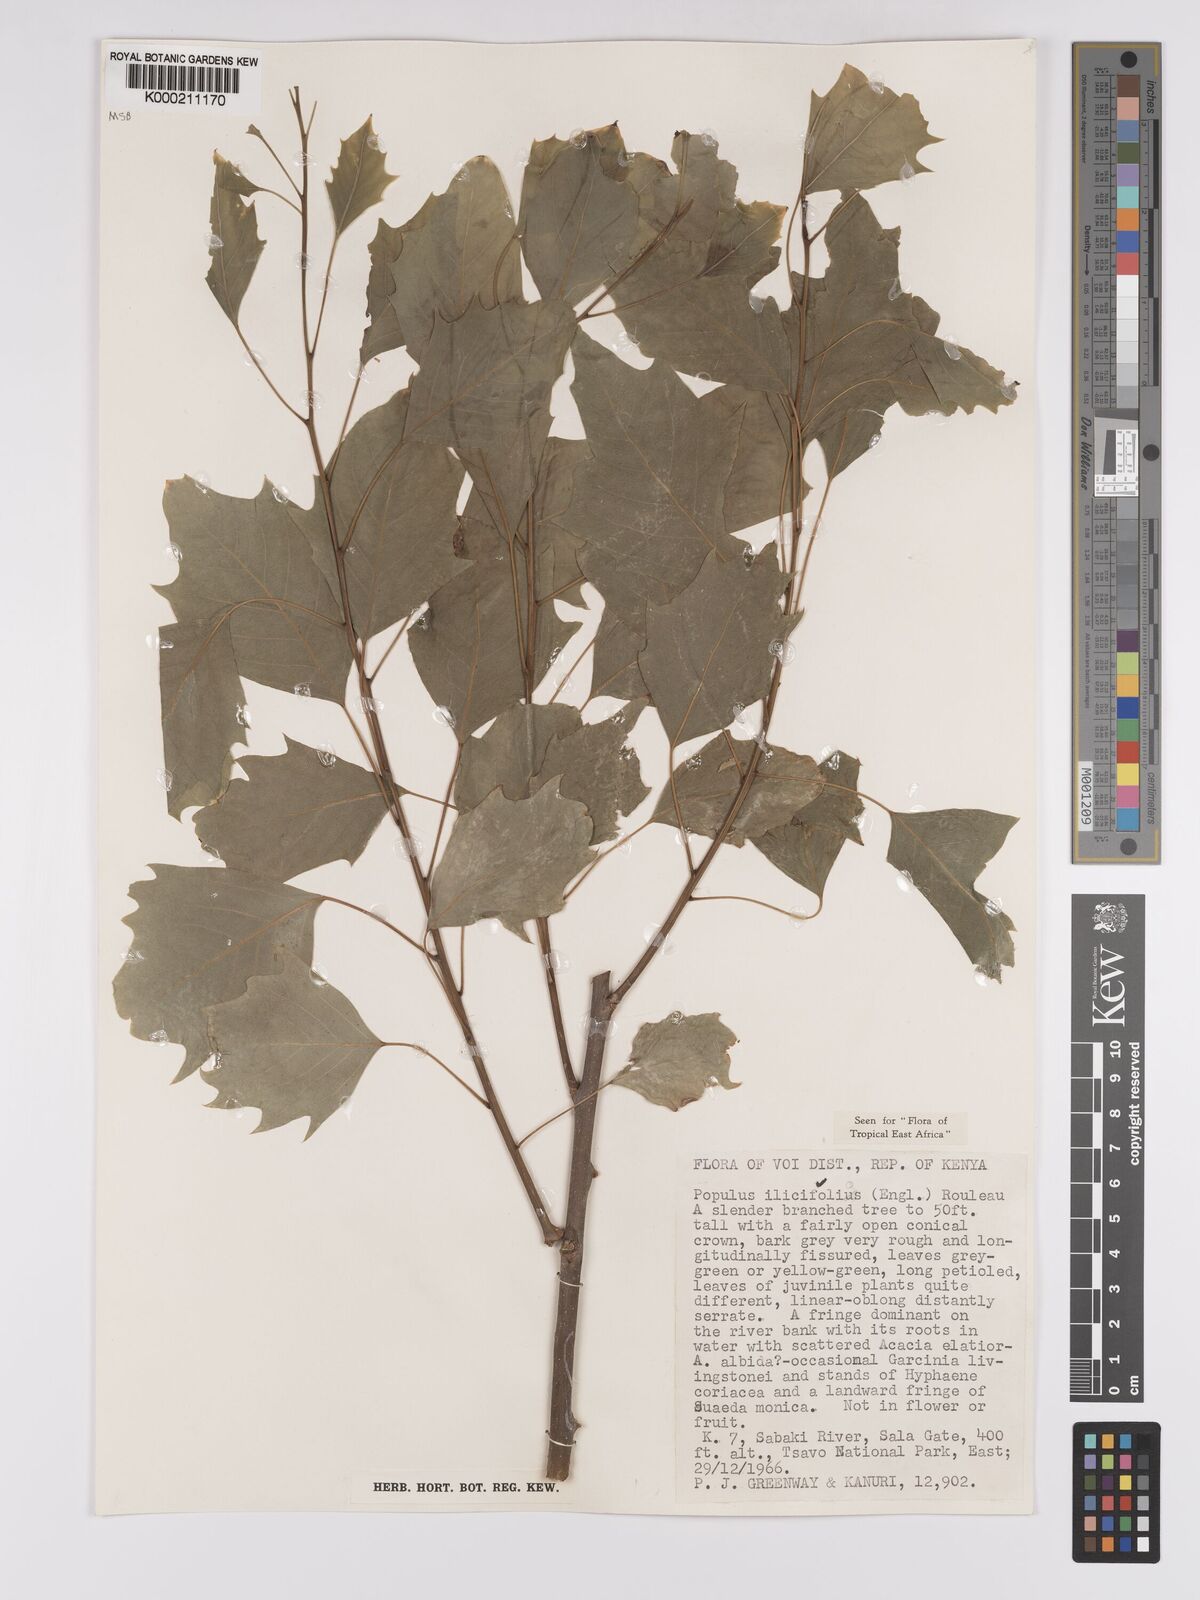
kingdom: Plantae
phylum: Tracheophyta
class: Magnoliopsida
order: Malpighiales
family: Salicaceae
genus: Populus
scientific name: Populus ilicifolia
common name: Tana river poplar
